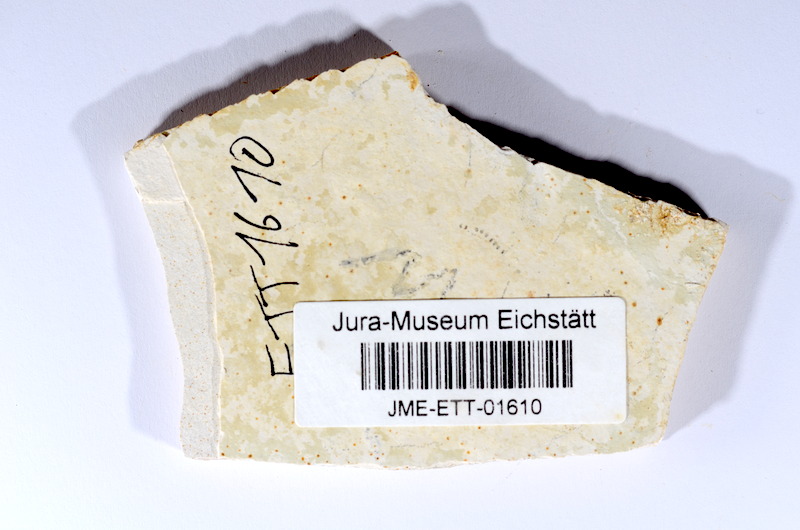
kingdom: Animalia
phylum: Chordata
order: Salmoniformes
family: Orthogonikleithridae
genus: Orthogonikleithrus
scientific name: Orthogonikleithrus hoelli
